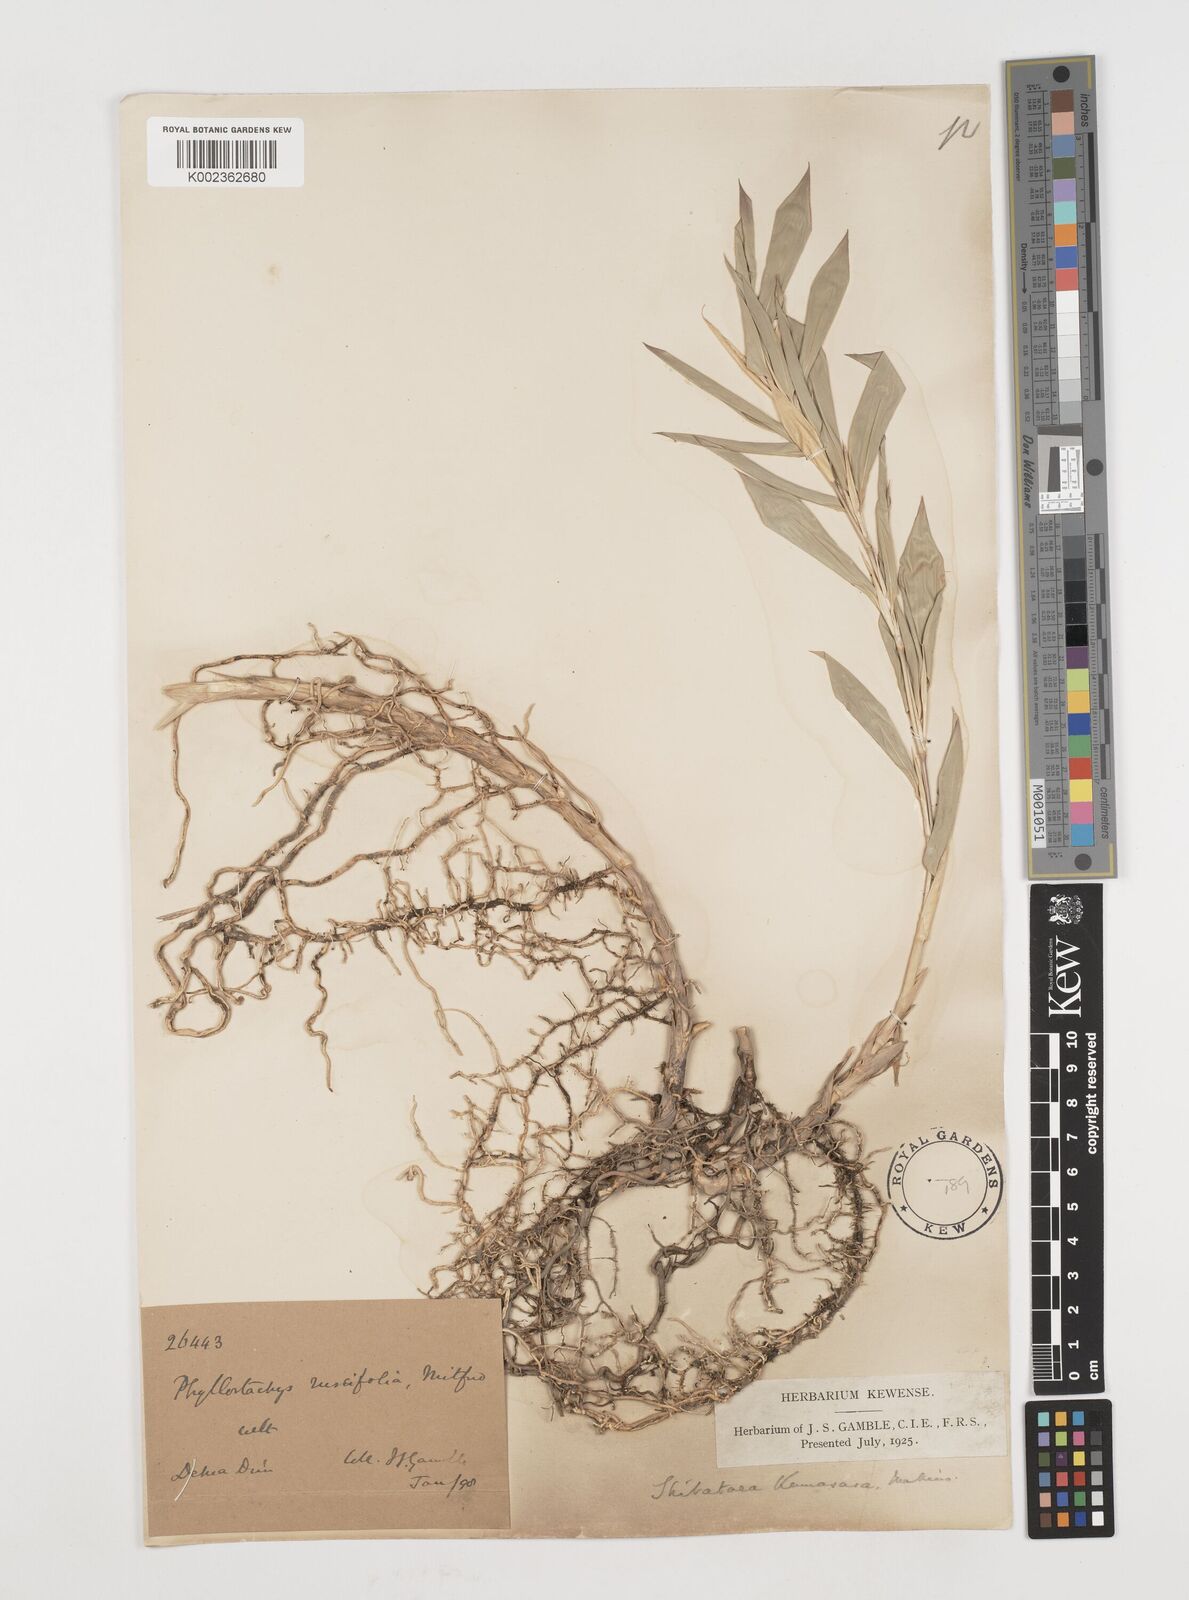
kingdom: Plantae
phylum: Tracheophyta
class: Liliopsida
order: Poales
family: Poaceae
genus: Shibataea
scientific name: Shibataea kumasasa
